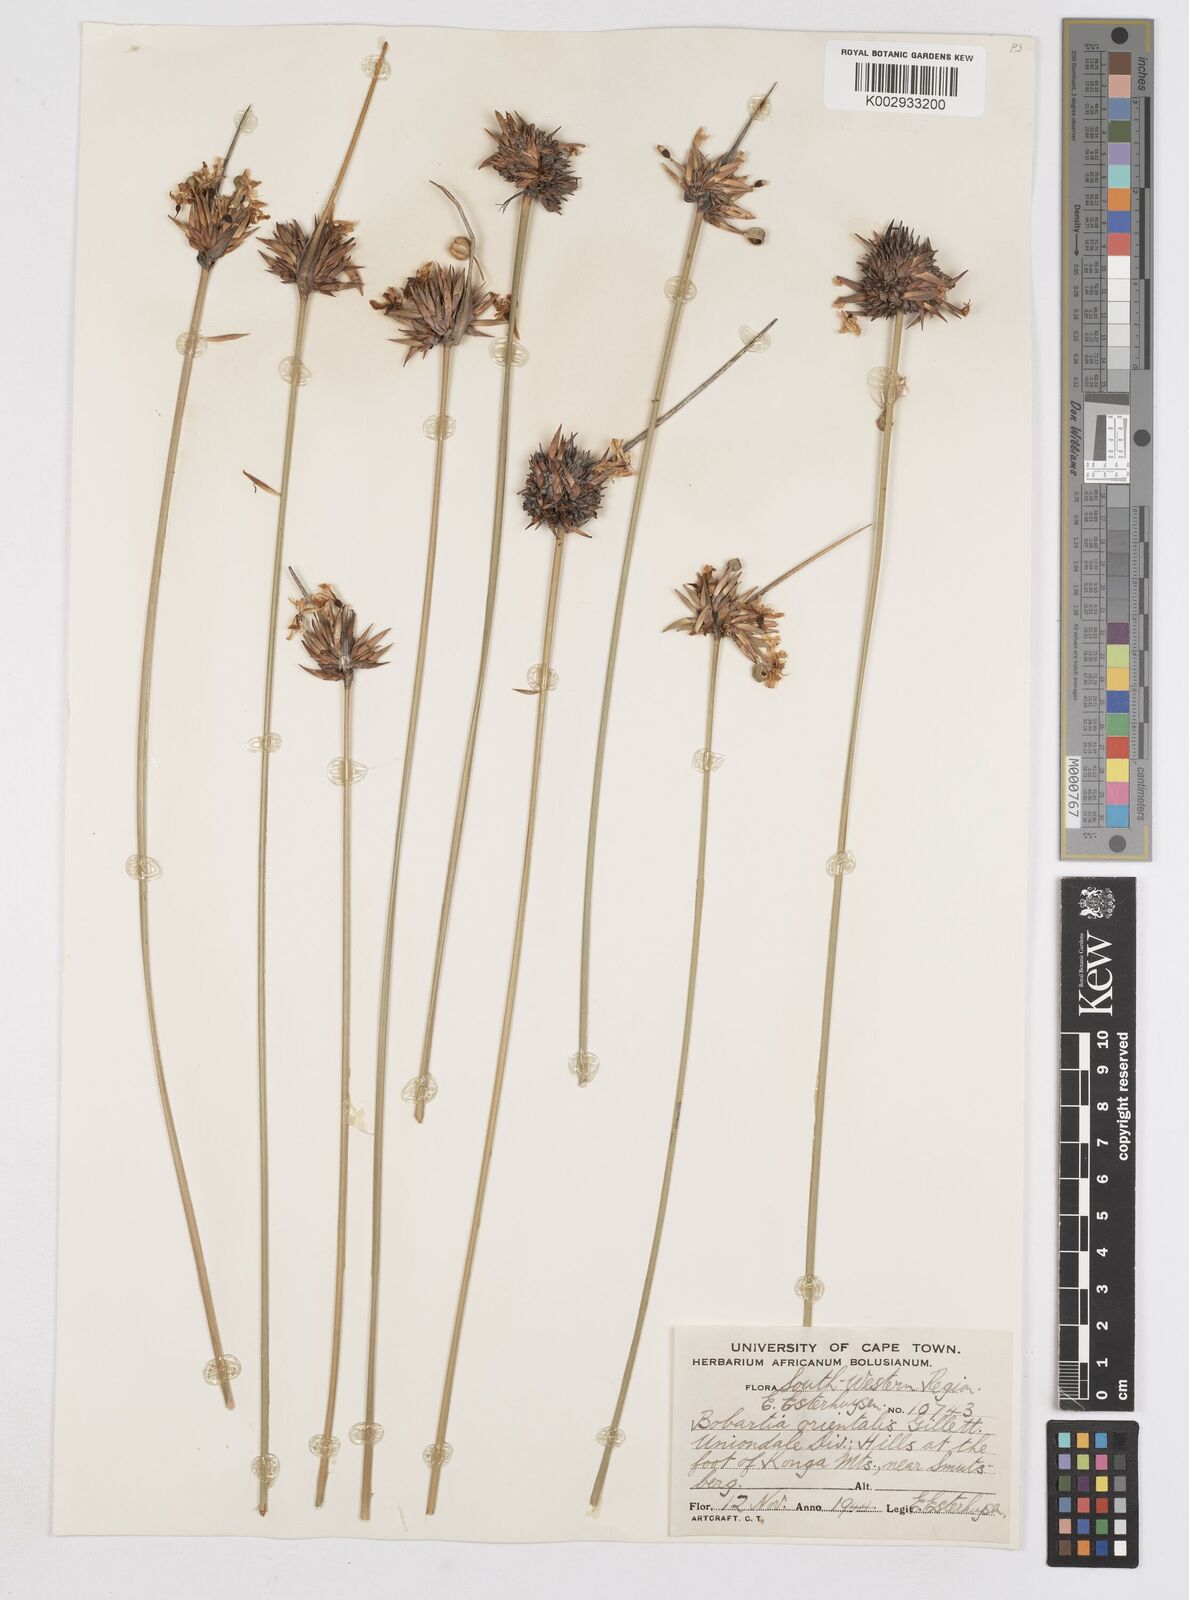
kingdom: Plantae
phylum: Tracheophyta
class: Liliopsida
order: Asparagales
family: Iridaceae
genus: Bobartia
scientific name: Bobartia orientalis
